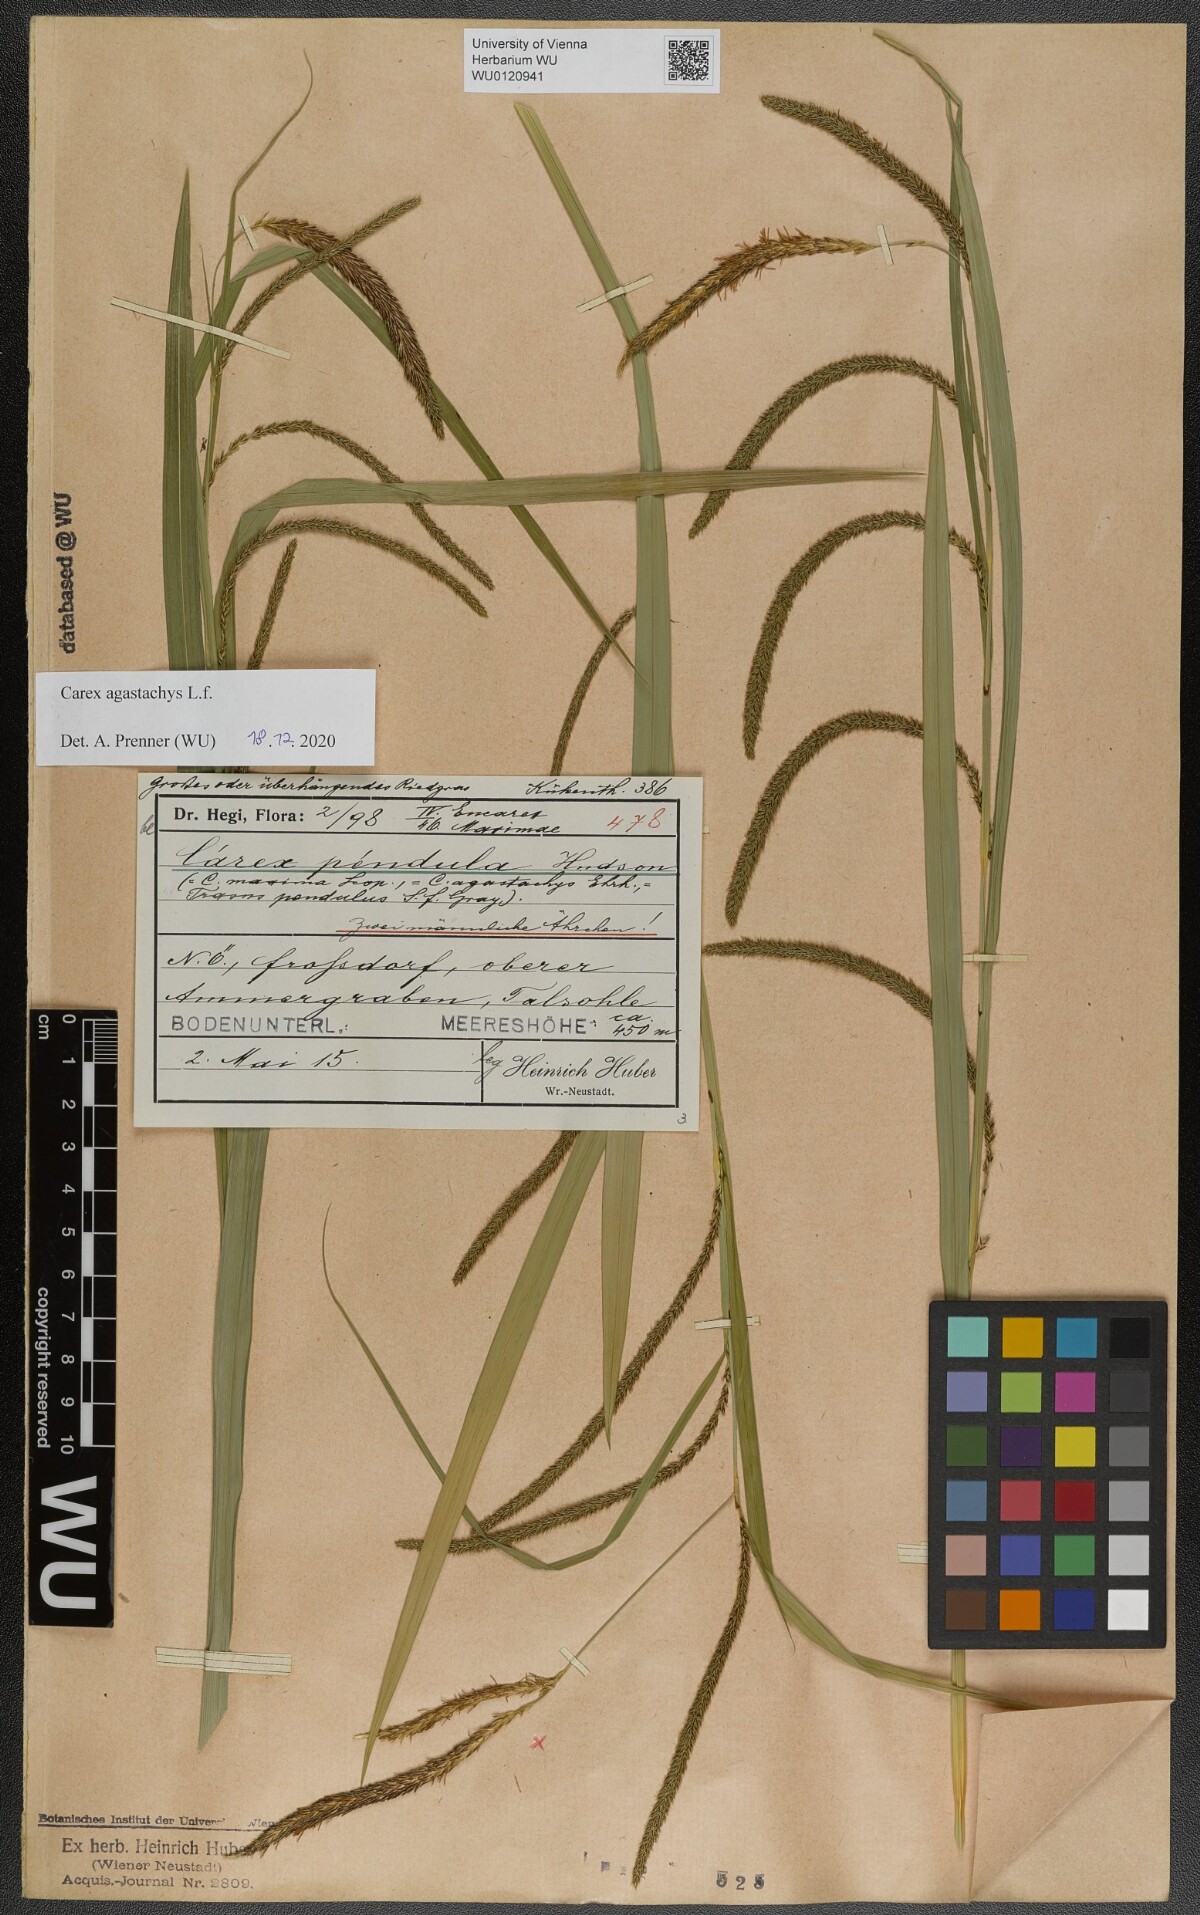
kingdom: Plantae
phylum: Tracheophyta
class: Liliopsida
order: Poales
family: Cyperaceae
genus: Carex
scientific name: Carex agastachys
